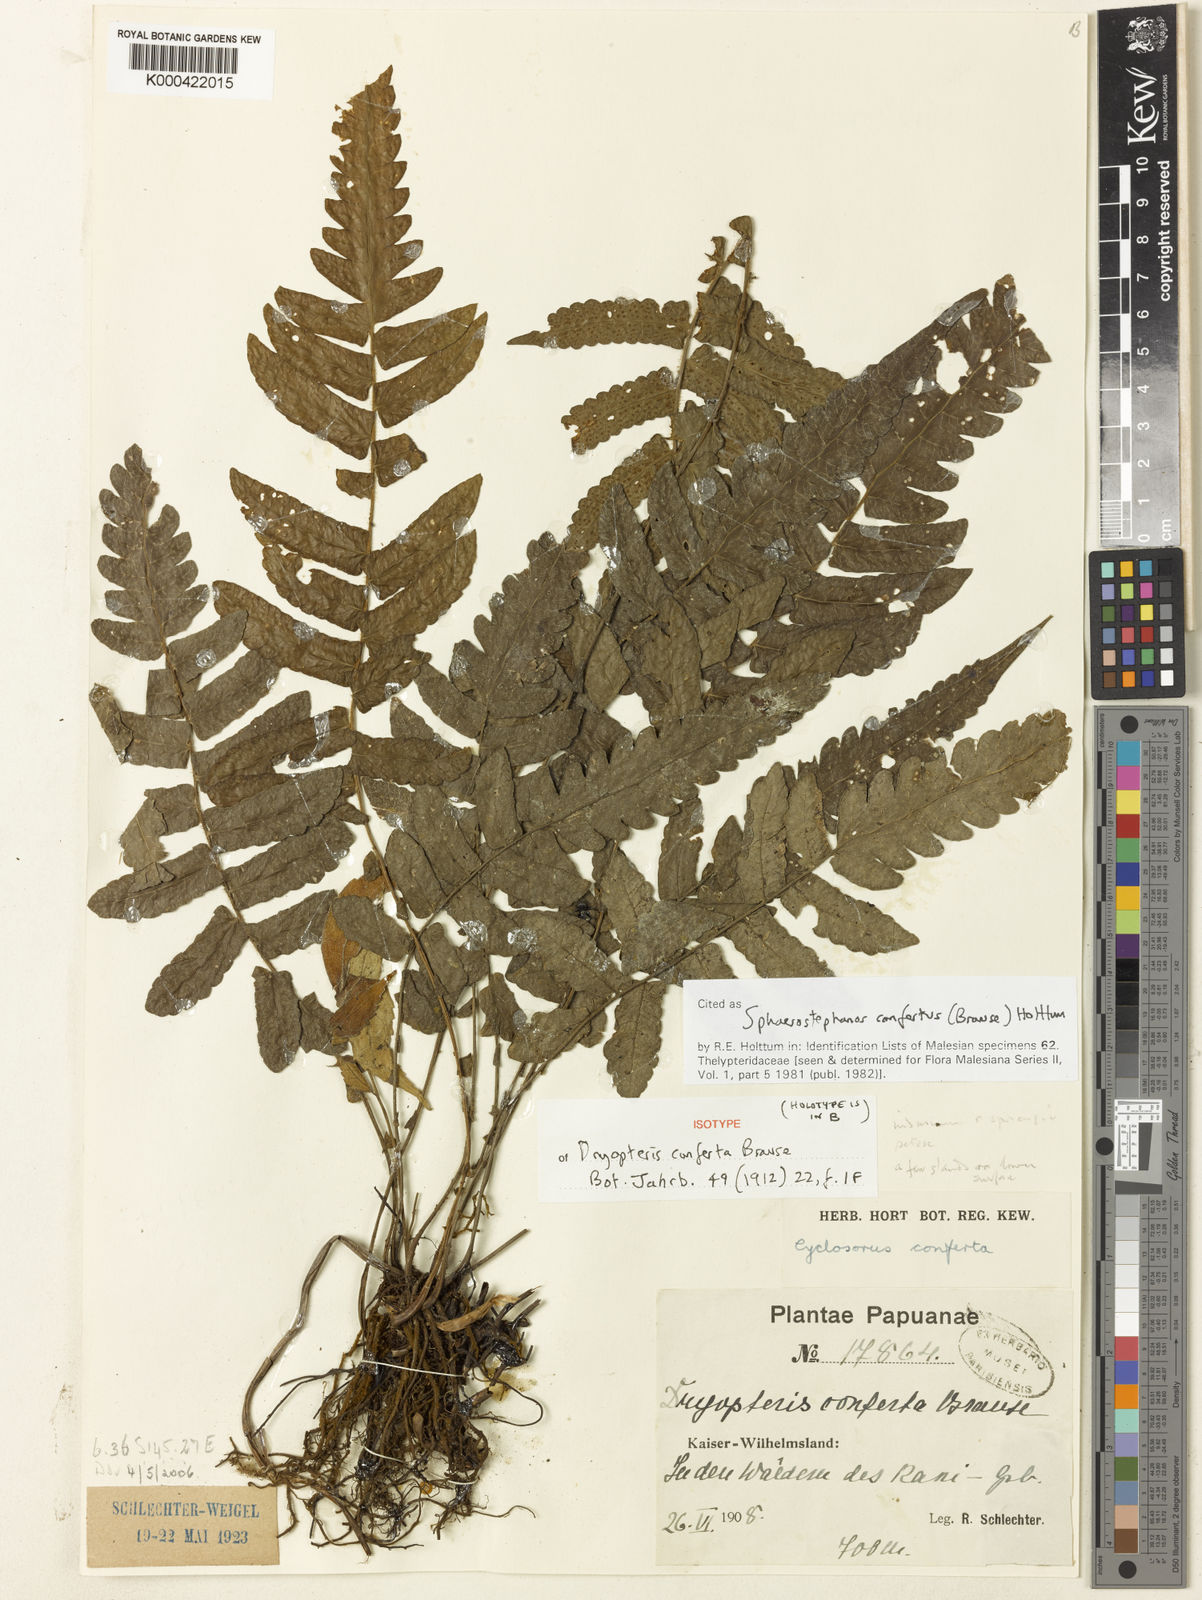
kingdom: Plantae
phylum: Tracheophyta
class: Polypodiopsida
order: Polypodiales
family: Thelypteridaceae
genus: Sphaerostephanos
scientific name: Sphaerostephanos confertus
